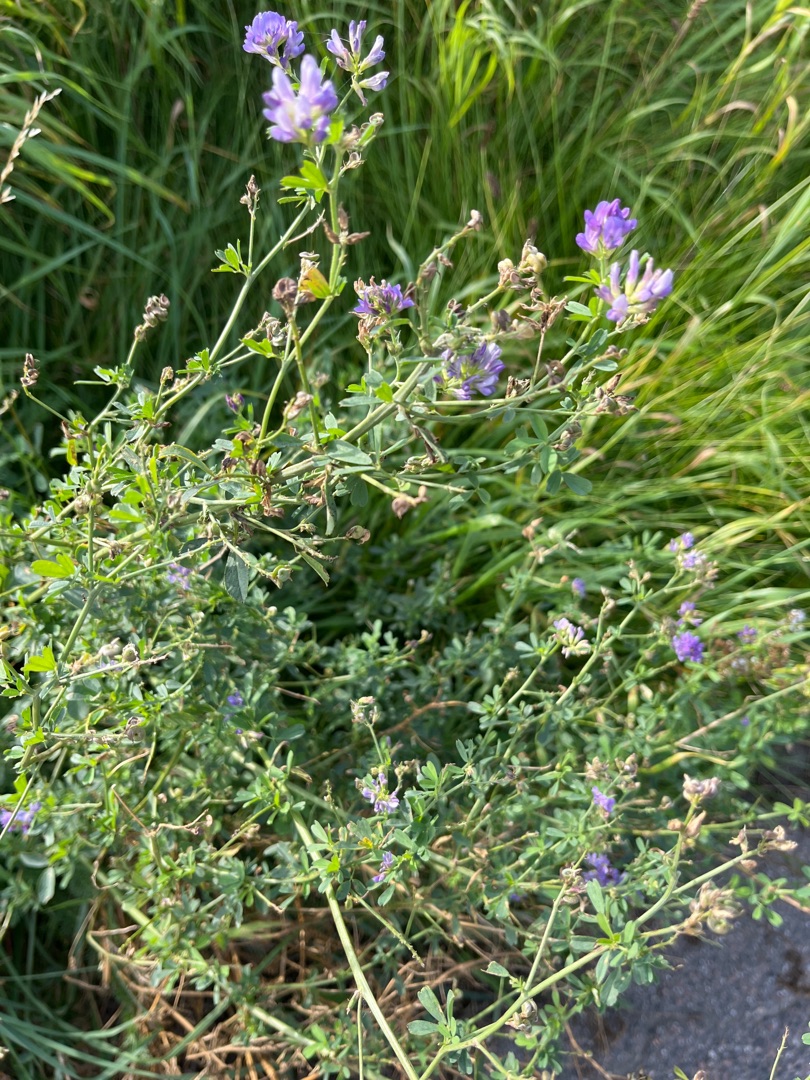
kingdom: Plantae
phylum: Tracheophyta
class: Magnoliopsida
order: Fabales
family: Fabaceae
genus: Medicago
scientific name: Medicago sativa
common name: Lucerne
